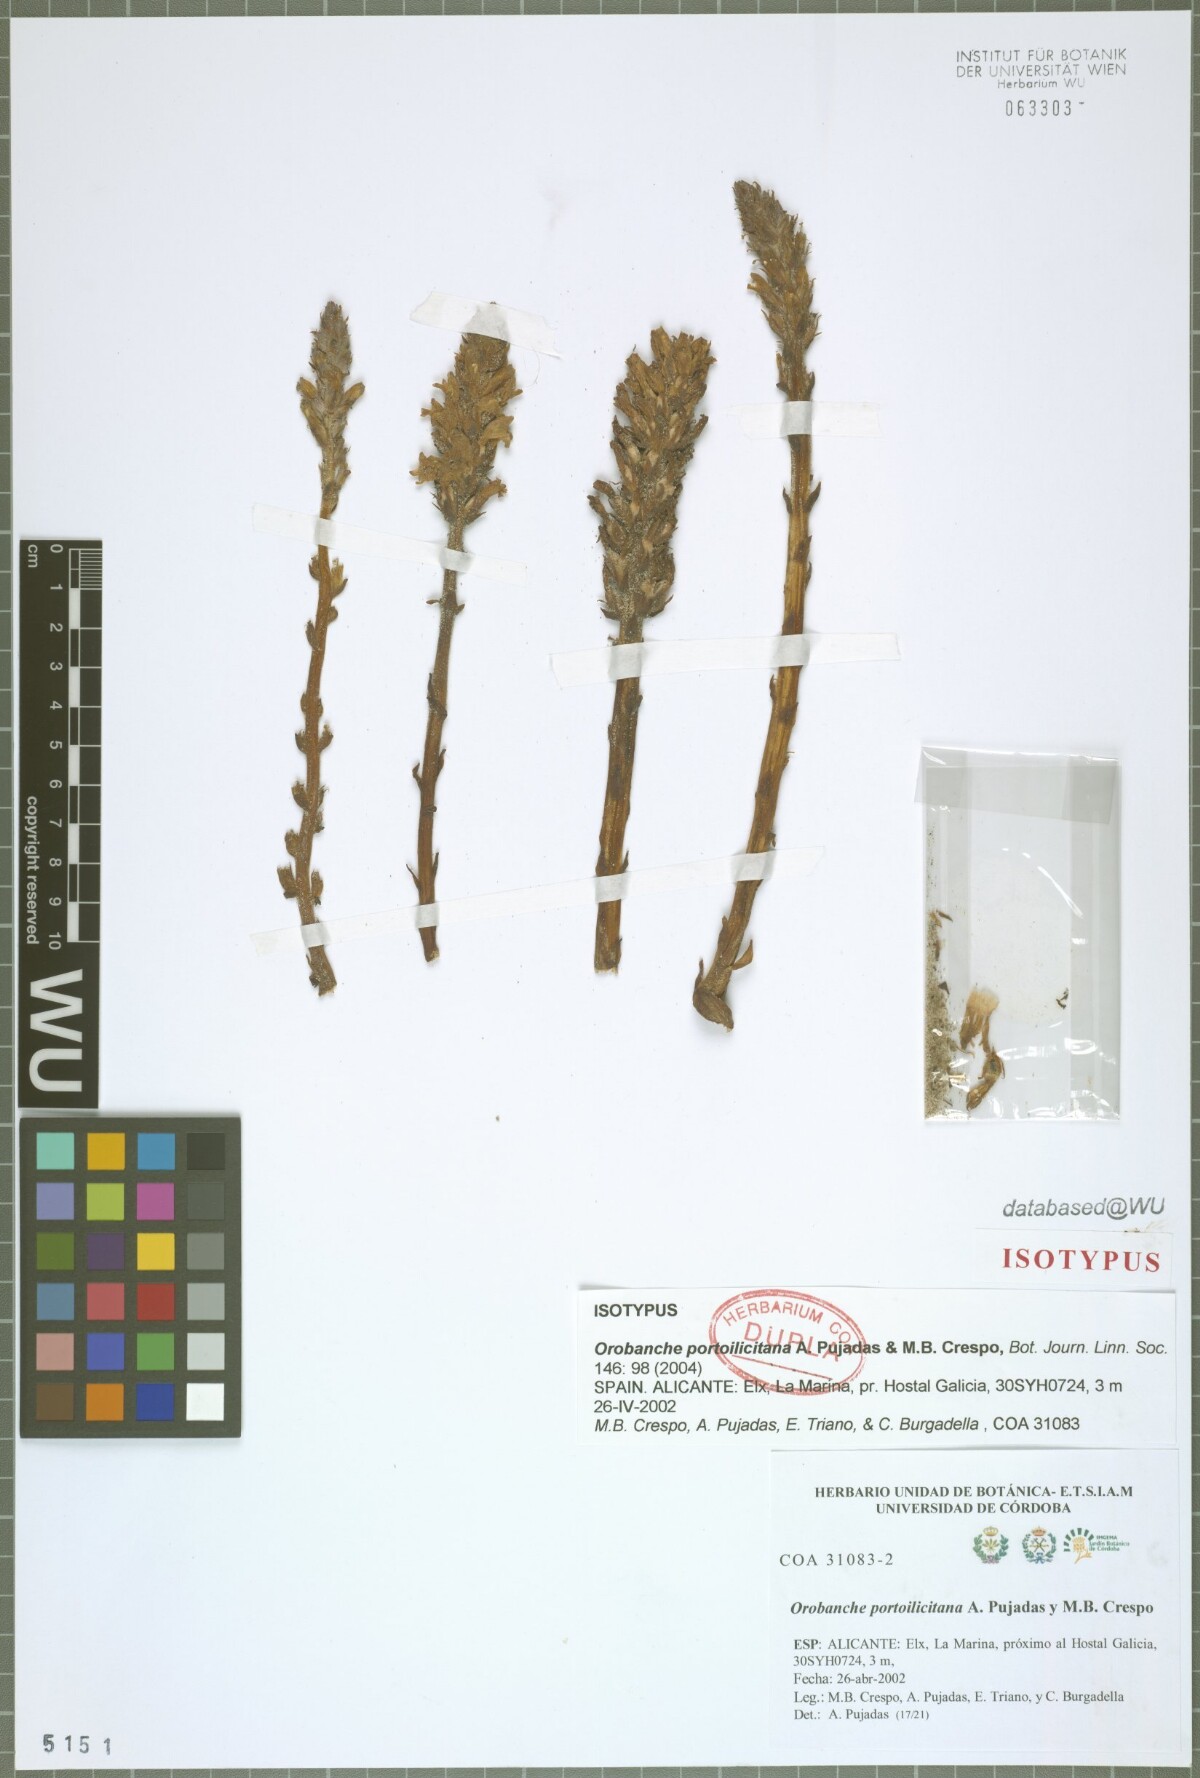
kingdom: Plantae
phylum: Tracheophyta
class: Magnoliopsida
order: Lamiales
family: Orobanchaceae
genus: Phelipanche
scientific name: Phelipanche portoilicitana
